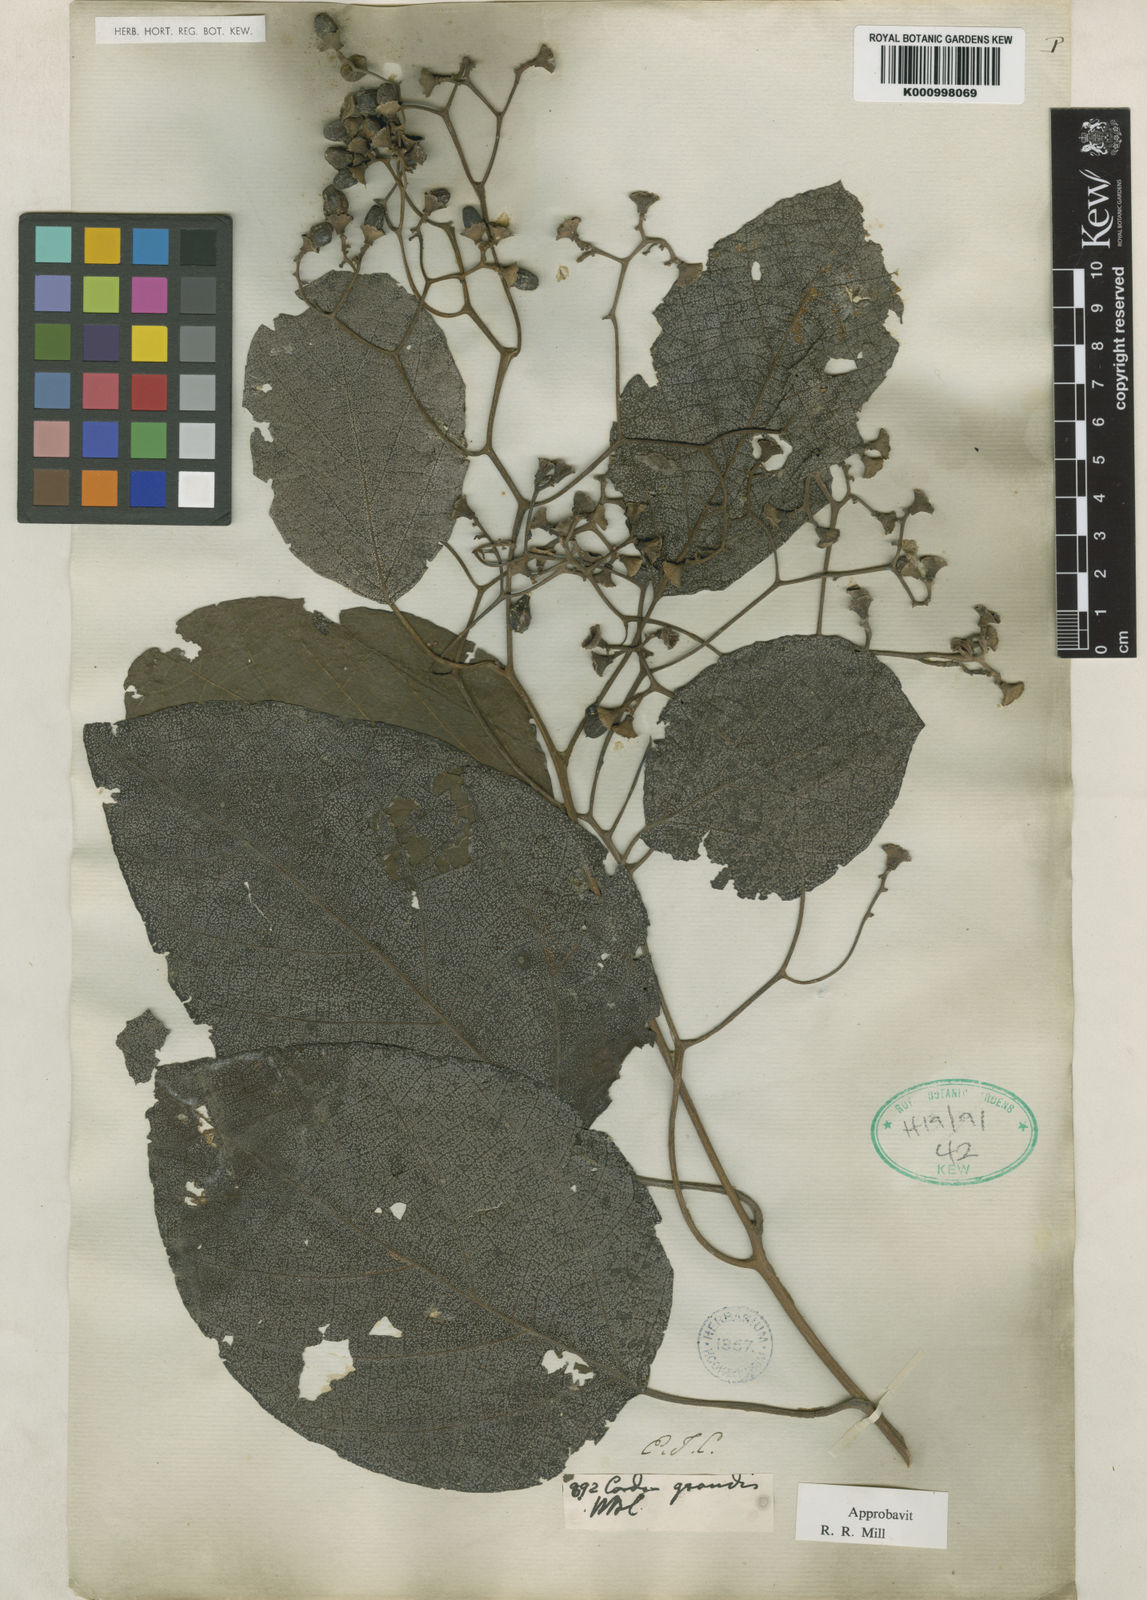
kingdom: Plantae
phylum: Tracheophyta
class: Magnoliopsida
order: Boraginales
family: Cordiaceae
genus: Cordia
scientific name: Cordia
